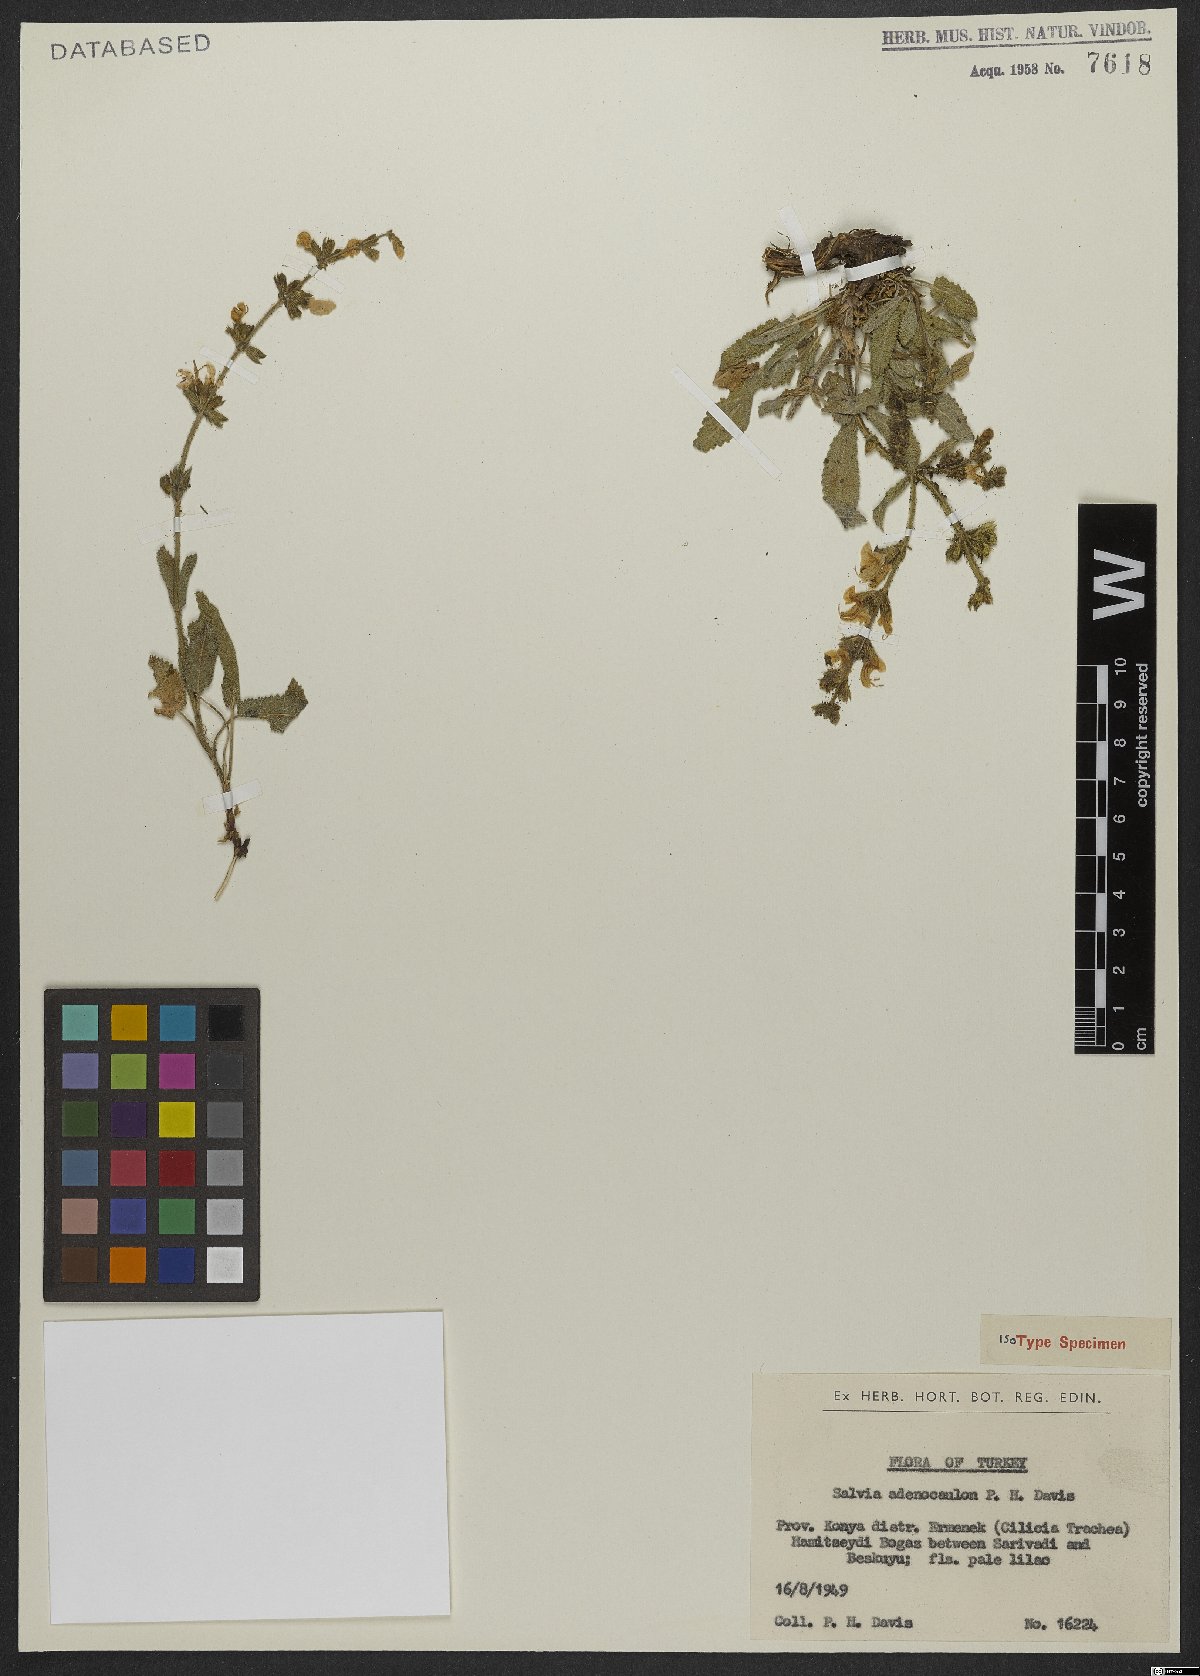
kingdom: Plantae
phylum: Tracheophyta
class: Magnoliopsida
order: Lamiales
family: Lamiaceae
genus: Salvia
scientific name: Salvia adenocaulon
